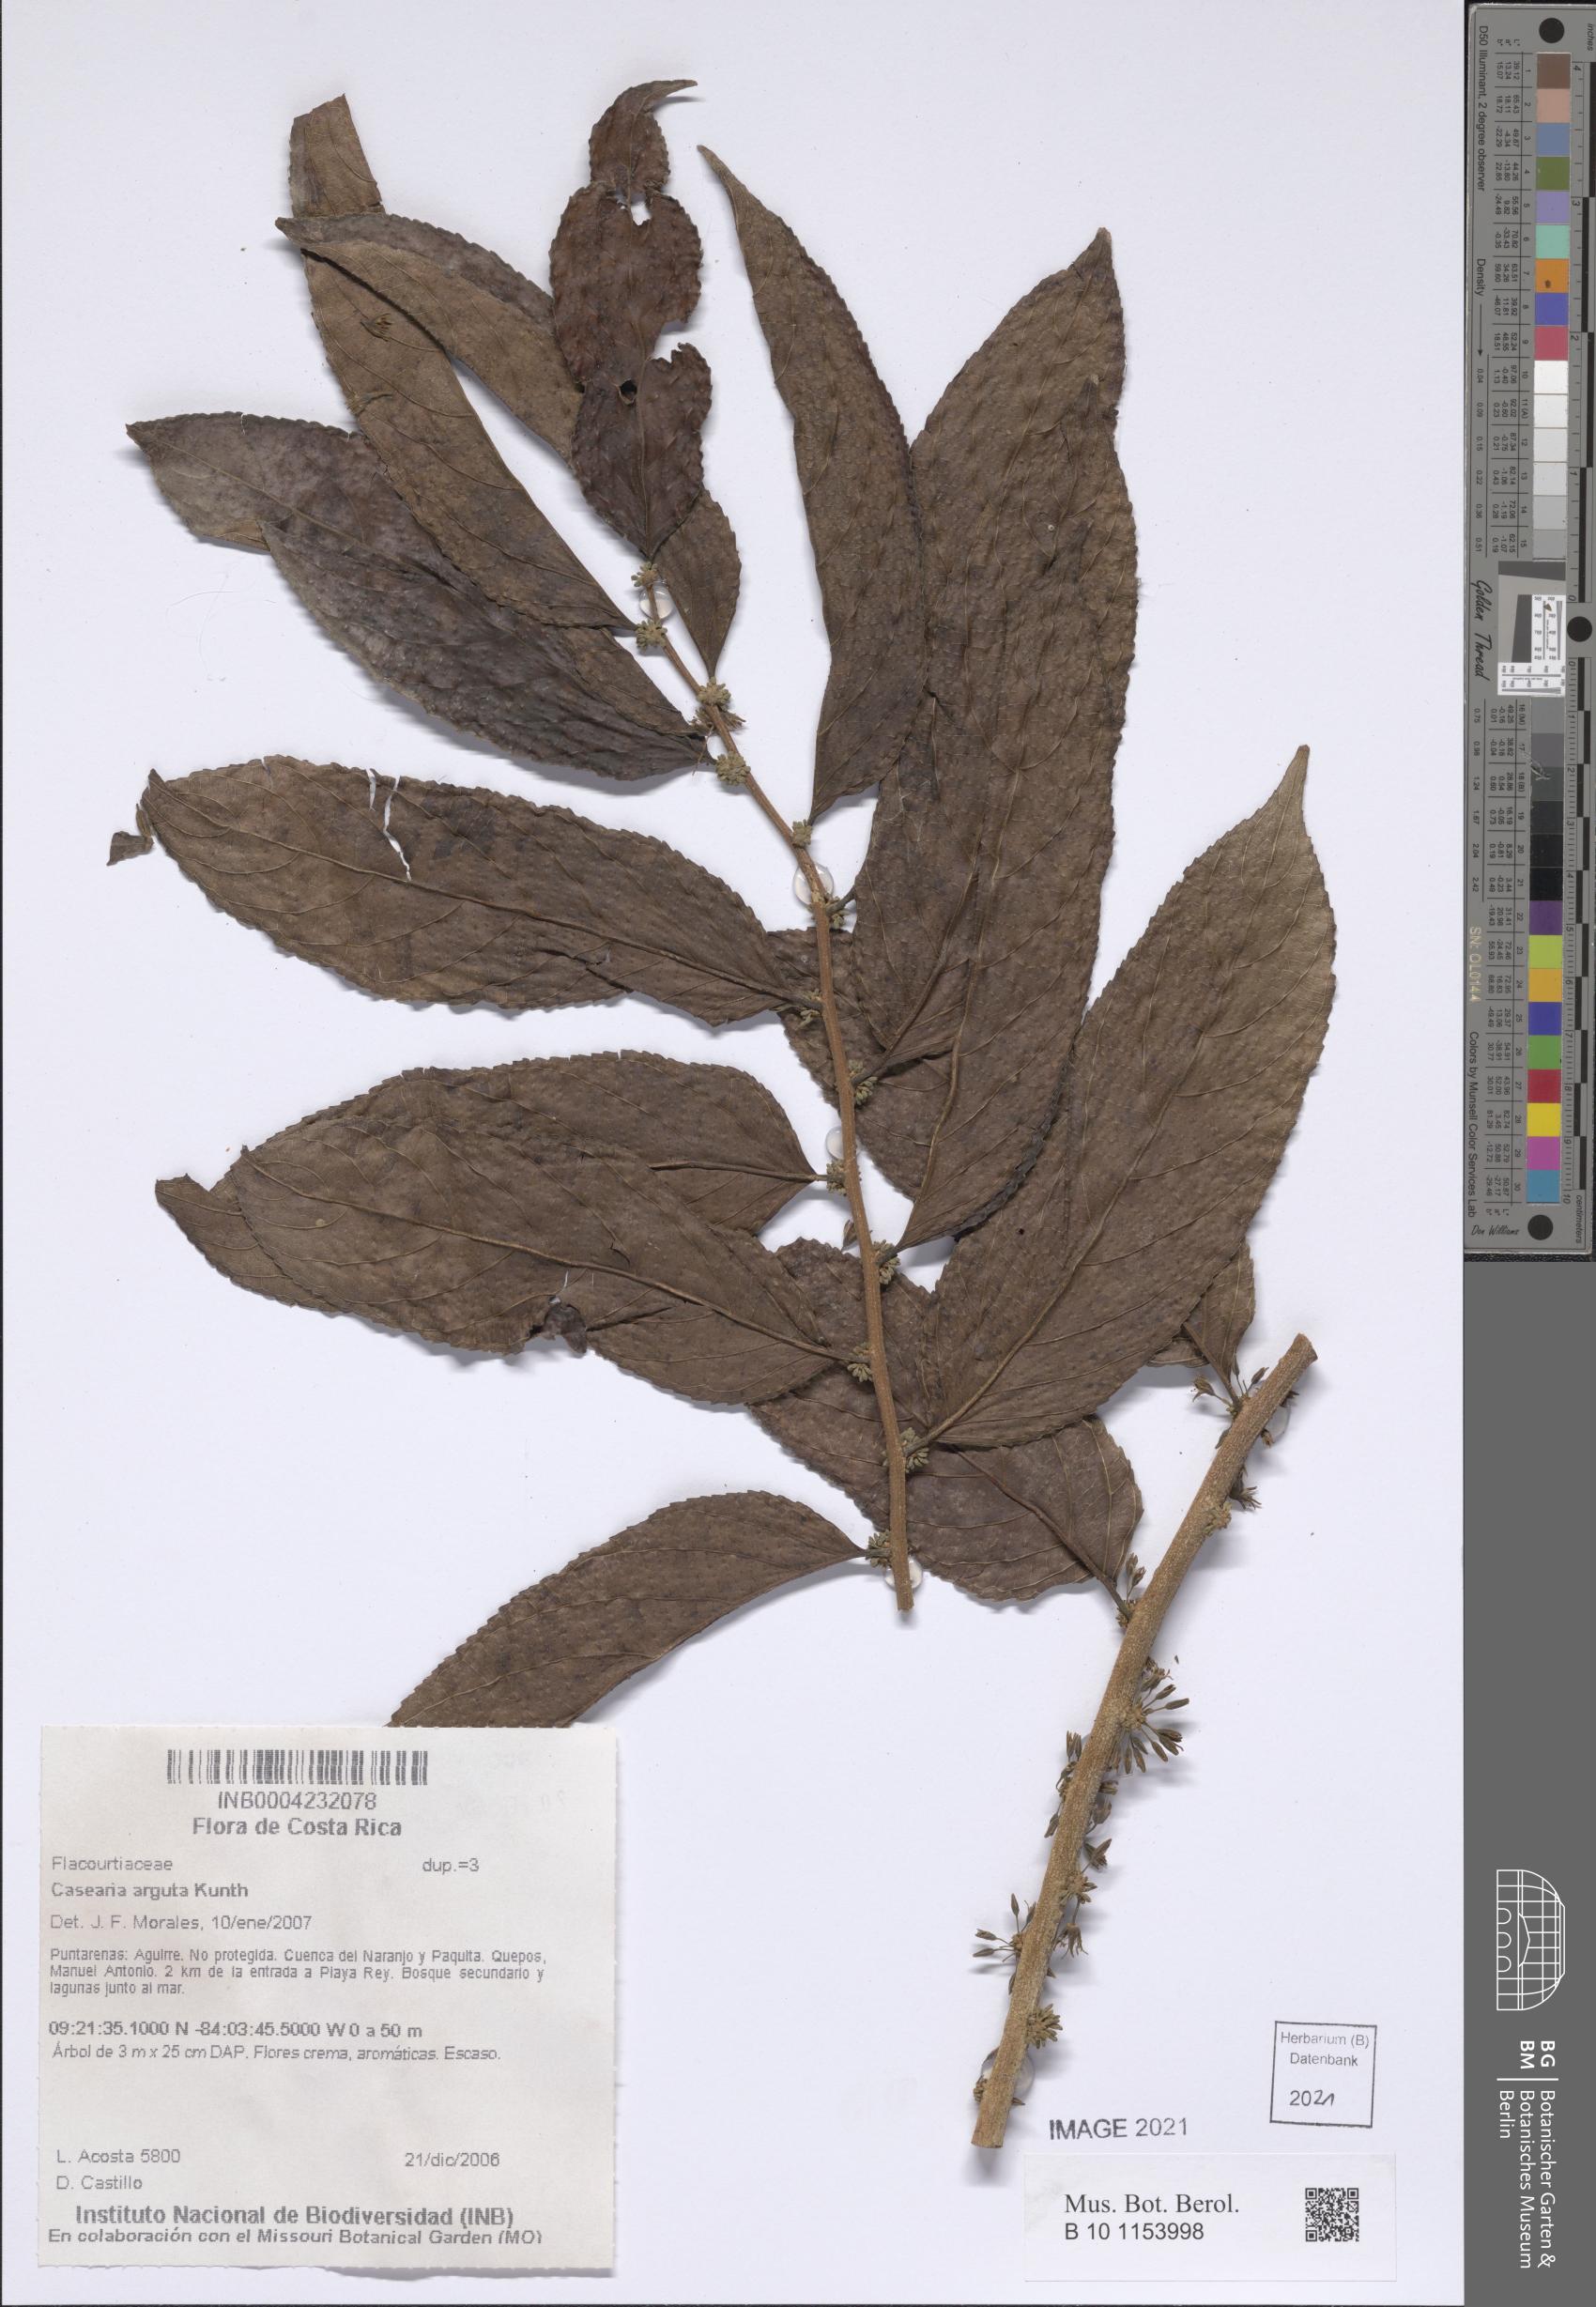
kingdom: Plantae
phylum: Tracheophyta
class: Magnoliopsida
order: Malpighiales
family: Salicaceae
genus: Casearia
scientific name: Casearia arguta
